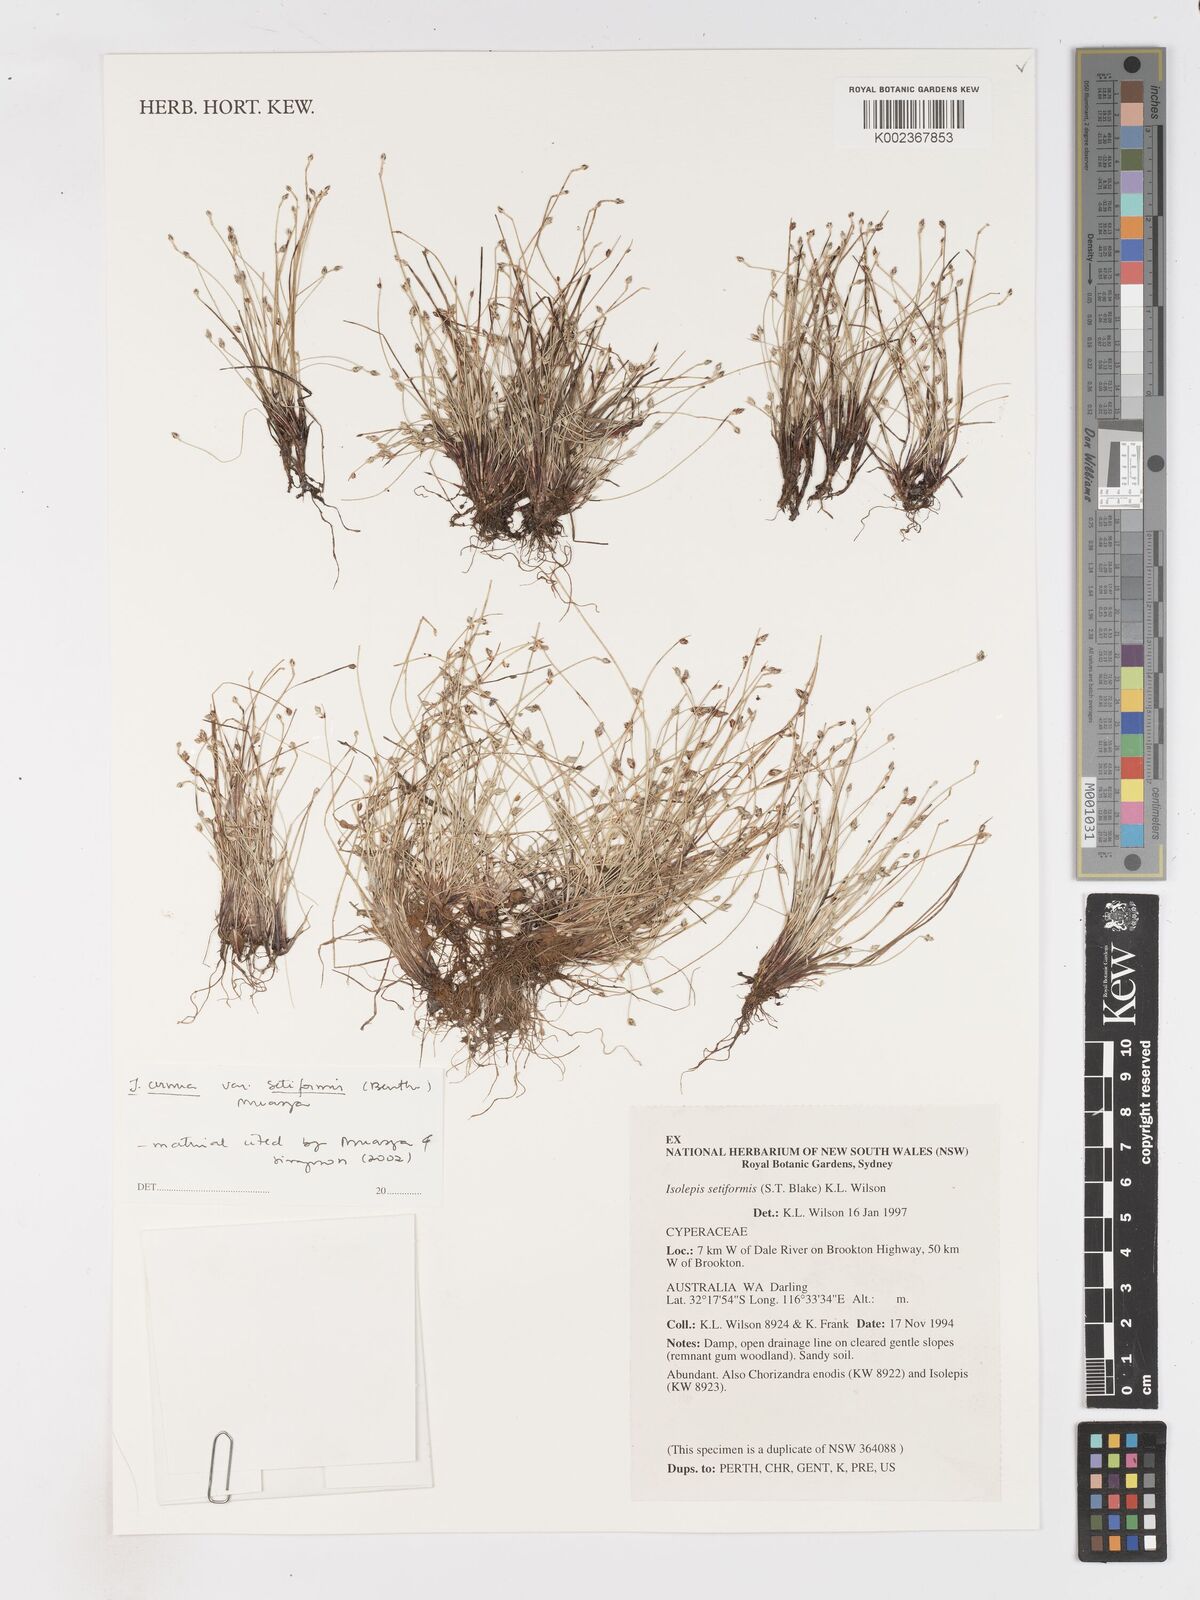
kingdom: Plantae
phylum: Tracheophyta
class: Liliopsida
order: Poales
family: Cyperaceae
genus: Isolepis
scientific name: Isolepis cernua
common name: Slender club-rush
